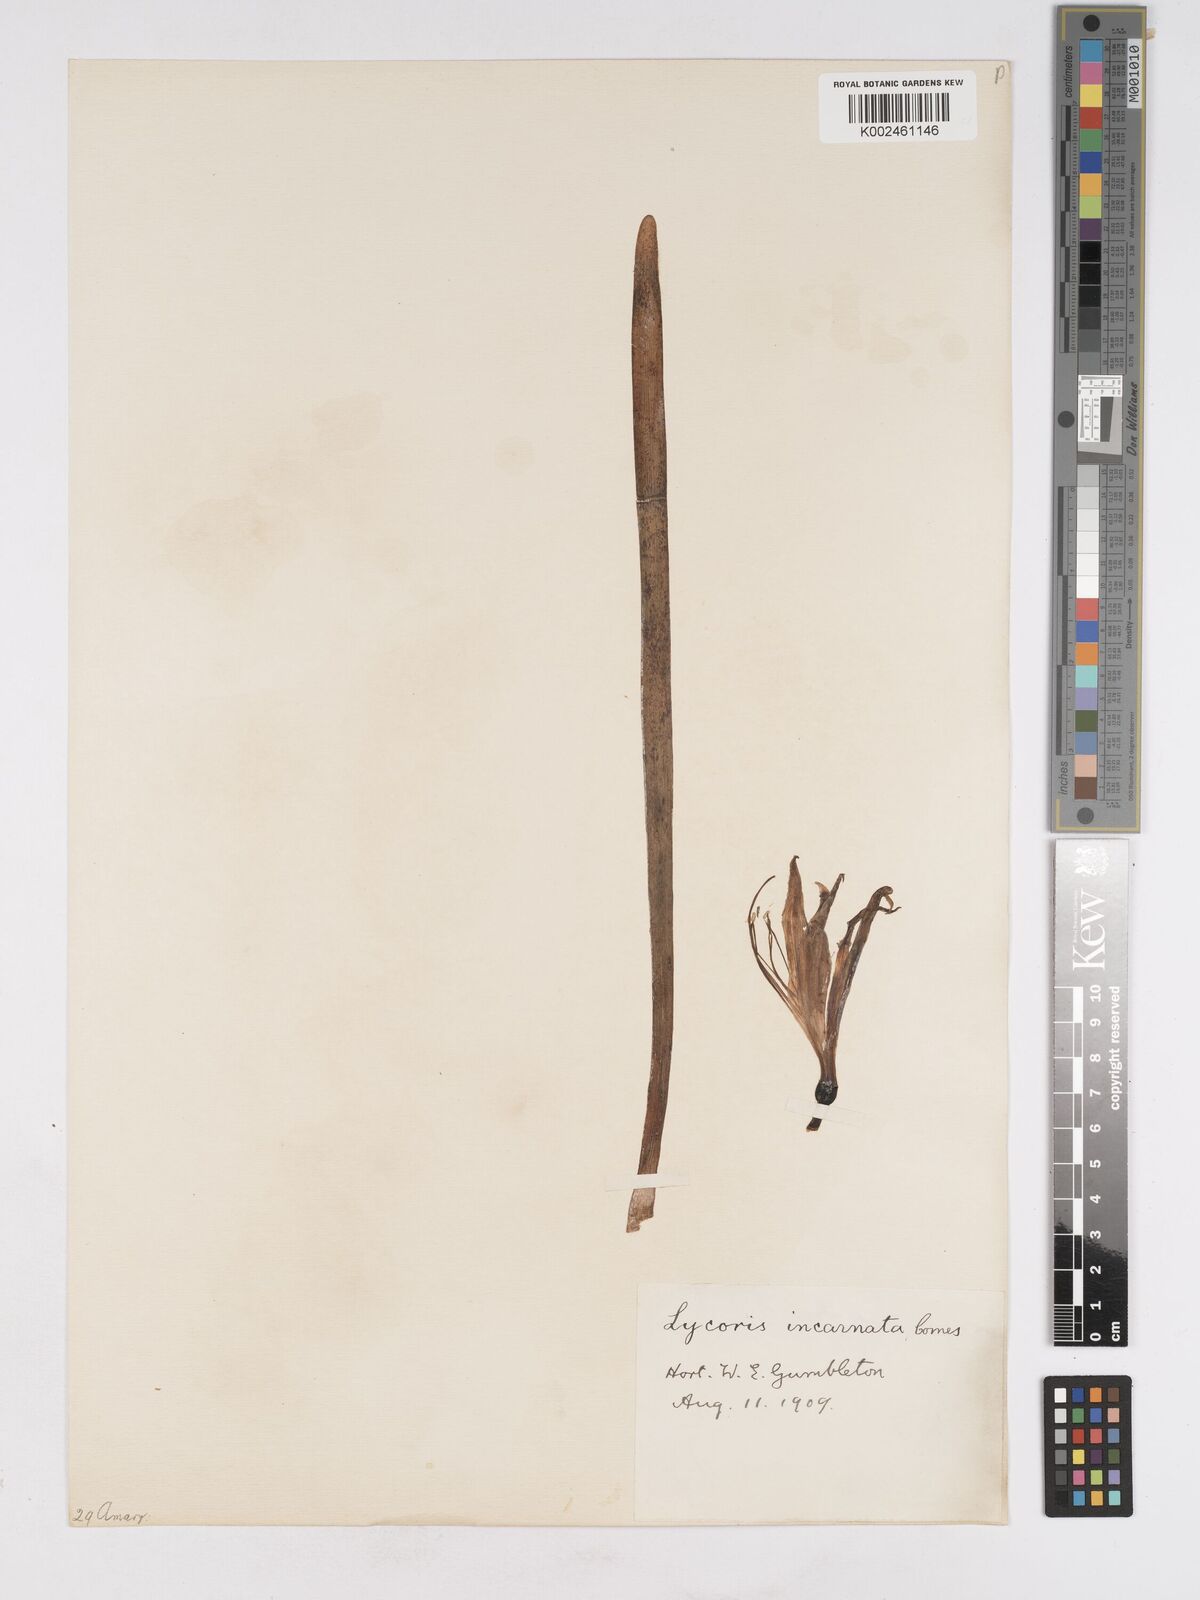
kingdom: Plantae
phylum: Tracheophyta
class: Liliopsida
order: Asparagales
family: Amaryllidaceae
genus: Lycoris
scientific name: Lycoris incarnata
